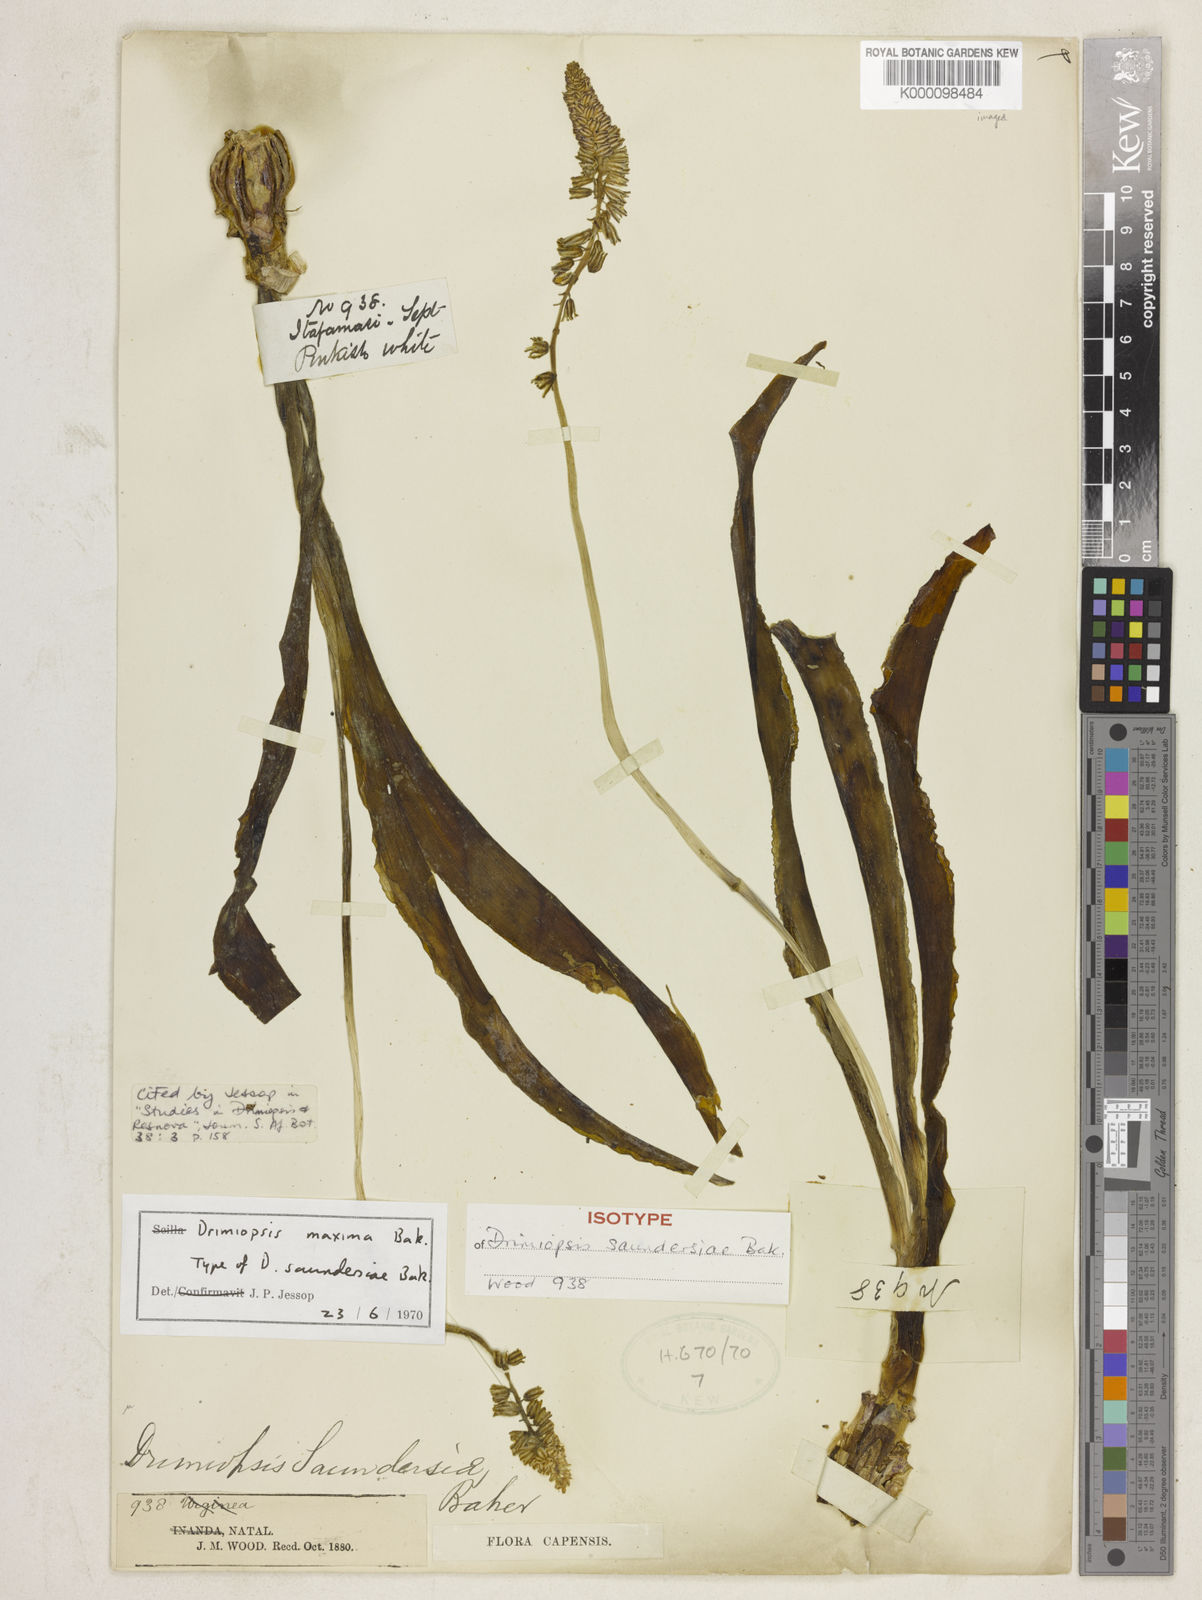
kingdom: Plantae
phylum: Tracheophyta
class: Liliopsida
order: Asparagales
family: Asparagaceae
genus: Resnova
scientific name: Resnova humifusa
